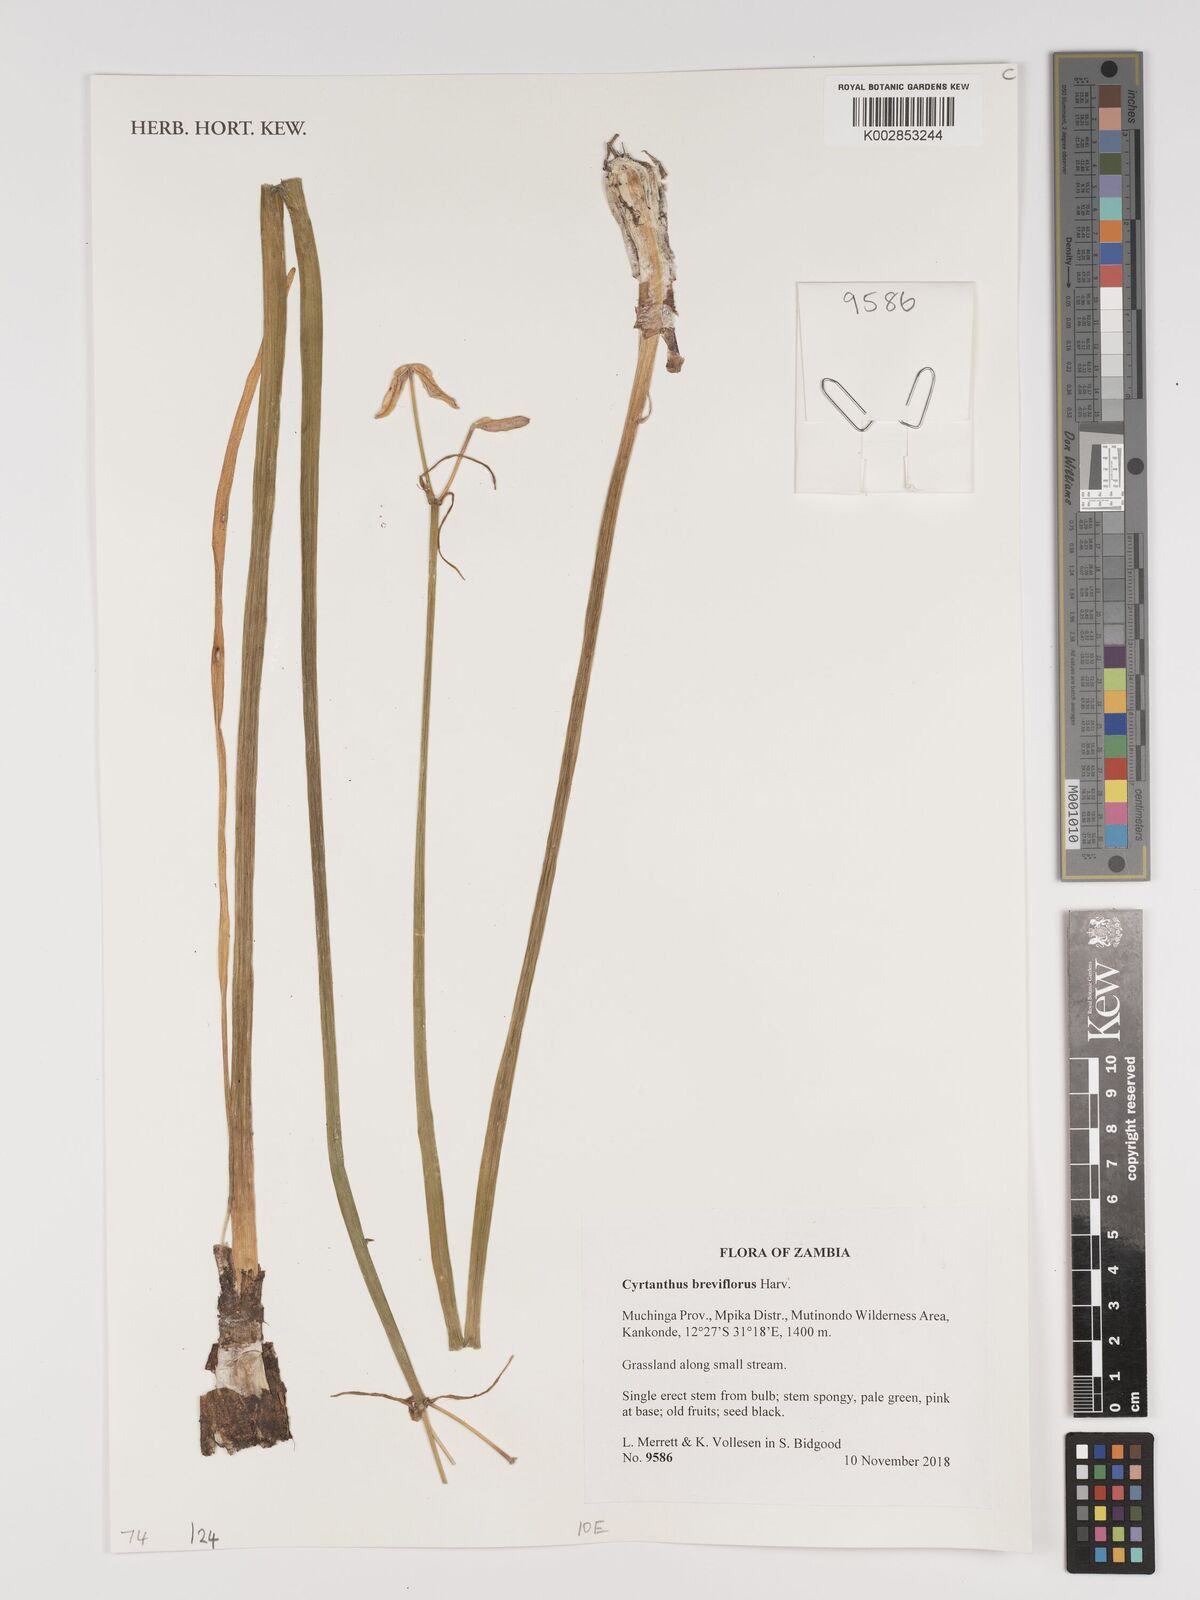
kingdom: Plantae
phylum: Tracheophyta
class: Liliopsida
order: Asparagales
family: Amaryllidaceae
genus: Cyrtanthus
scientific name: Cyrtanthus breviflorus
